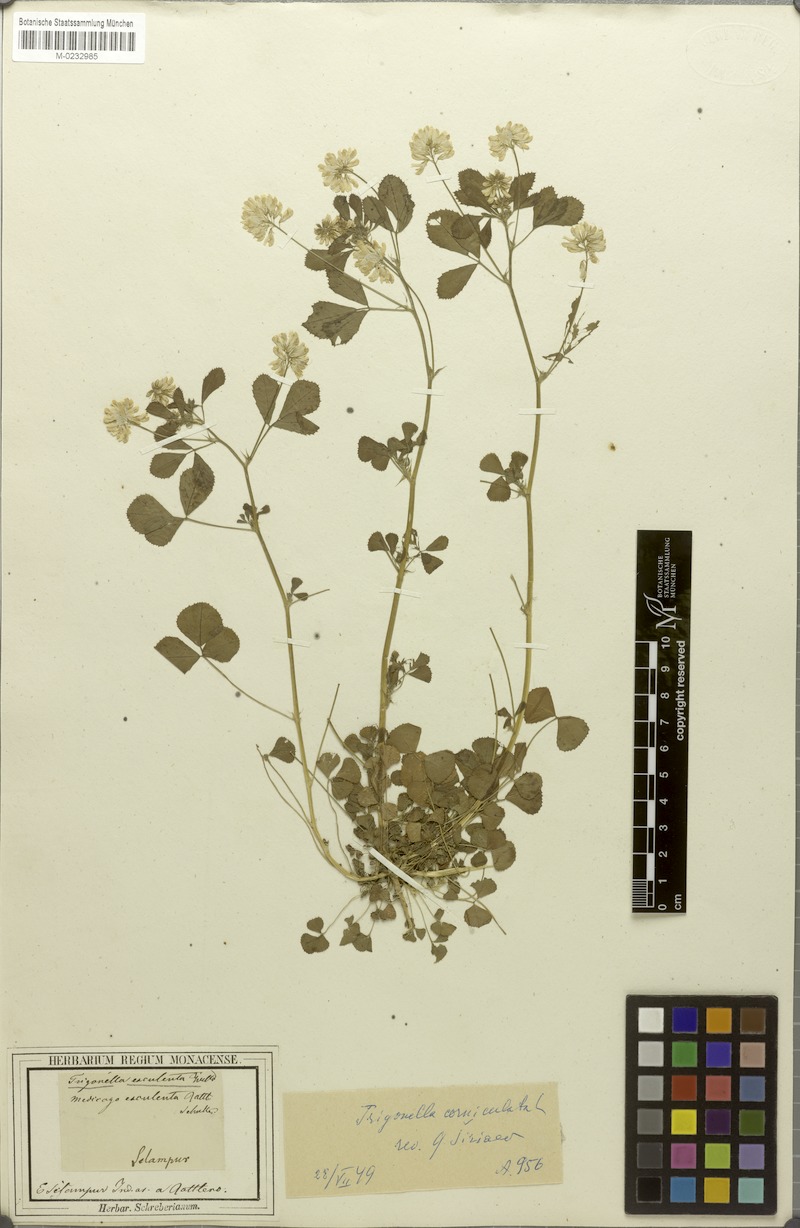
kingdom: Plantae
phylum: Tracheophyta
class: Magnoliopsida
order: Fabales
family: Fabaceae
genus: Trigonella
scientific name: Trigonella esculenta
